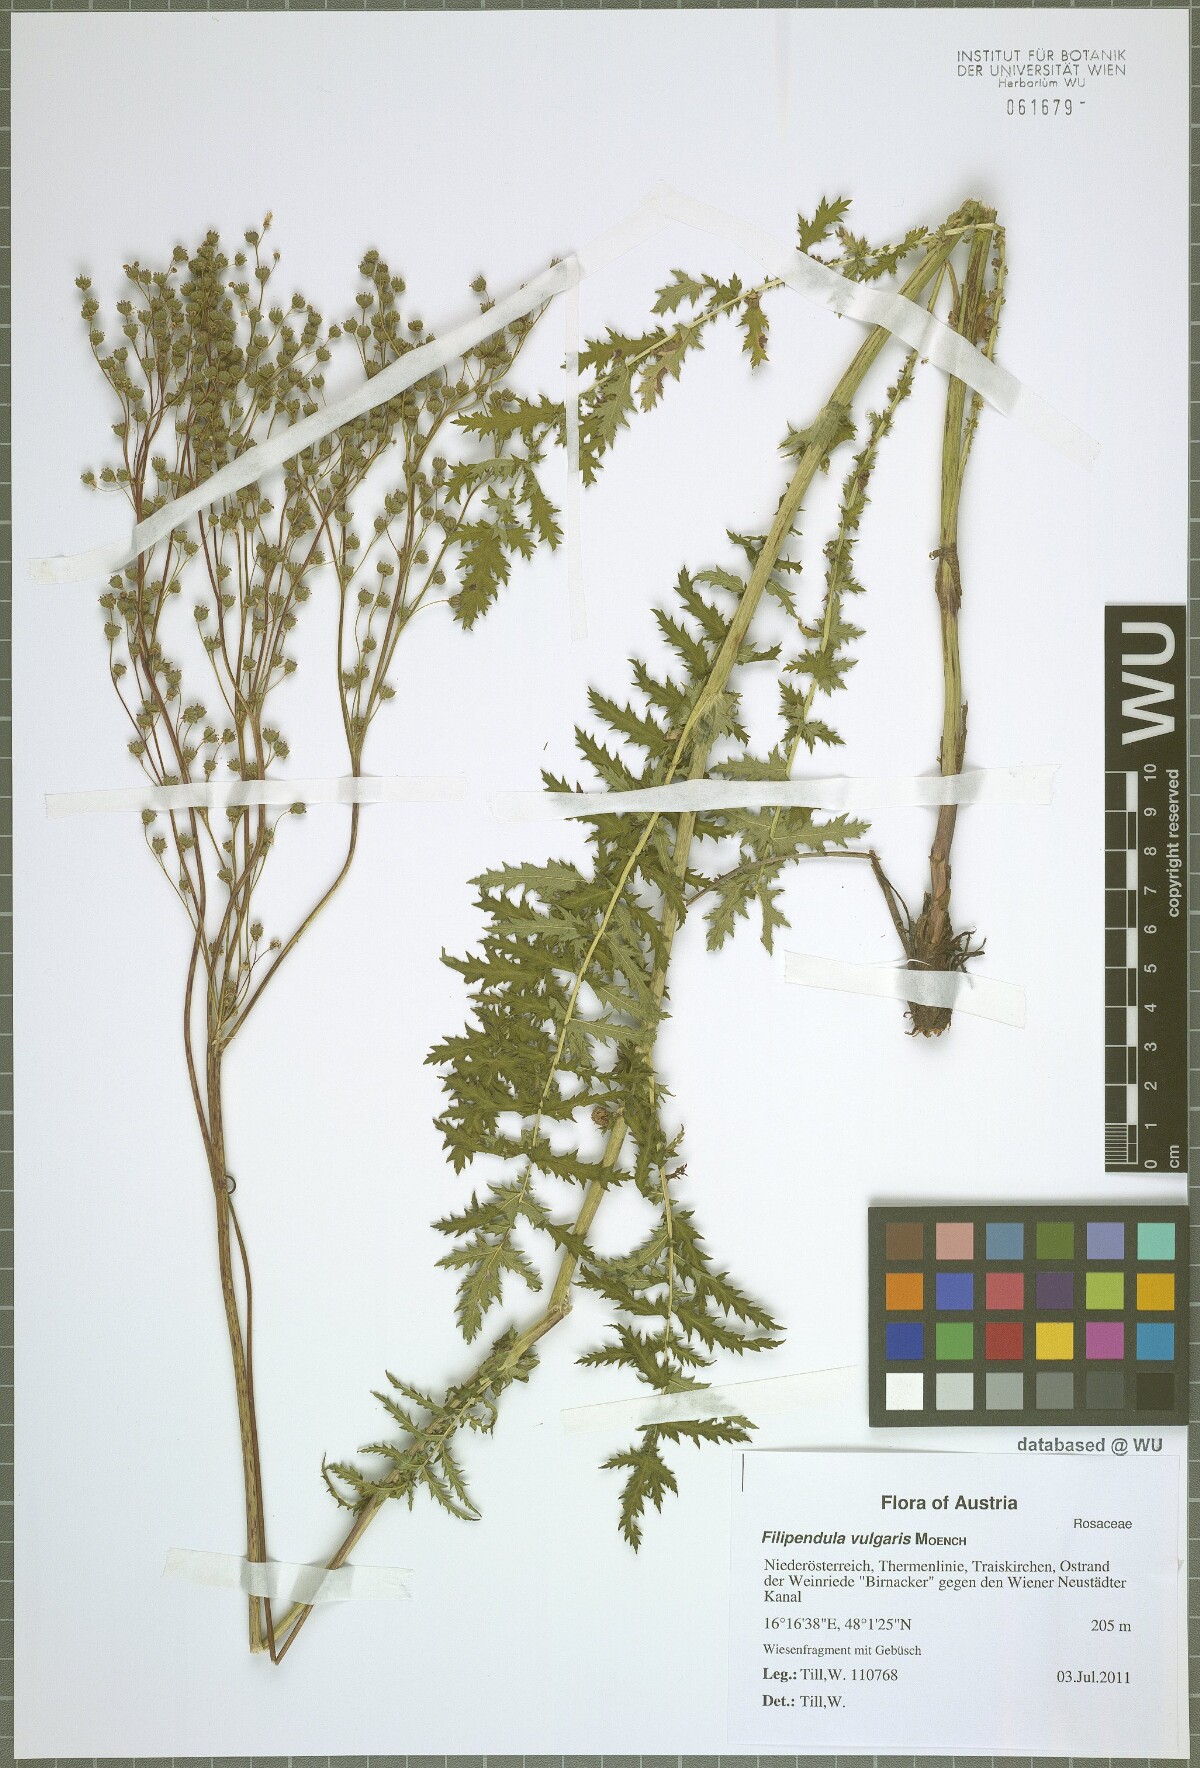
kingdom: Plantae
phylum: Tracheophyta
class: Magnoliopsida
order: Rosales
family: Rosaceae
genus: Filipendula
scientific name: Filipendula vulgaris
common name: Dropwort
